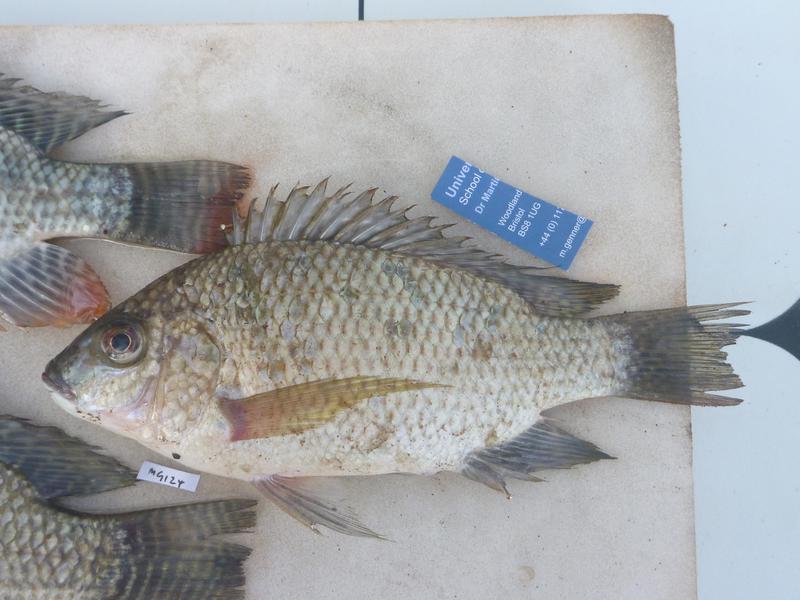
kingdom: Animalia
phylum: Chordata
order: Perciformes
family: Cichlidae
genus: Oreochromis
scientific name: Oreochromis tanganicae
